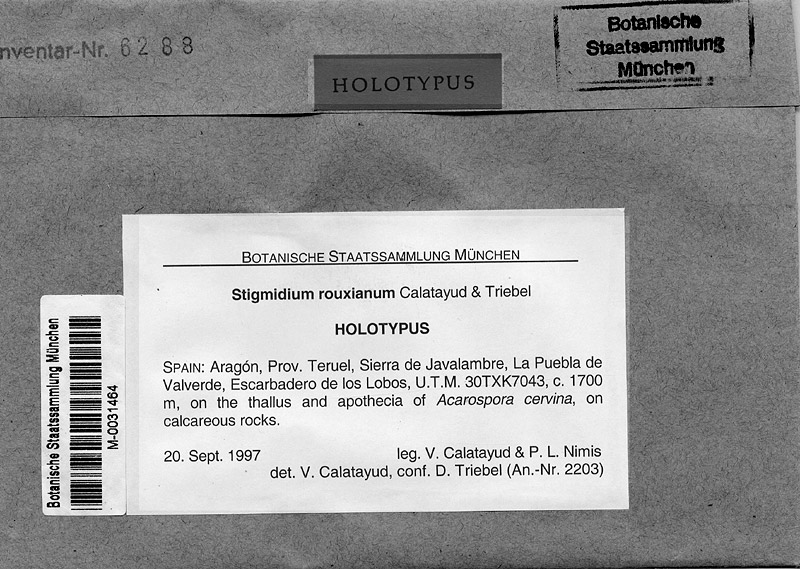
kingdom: Fungi
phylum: Ascomycota
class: Lecanoromycetes
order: Acarosporales
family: Acarosporaceae
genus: Acarospora
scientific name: Acarospora cervina
